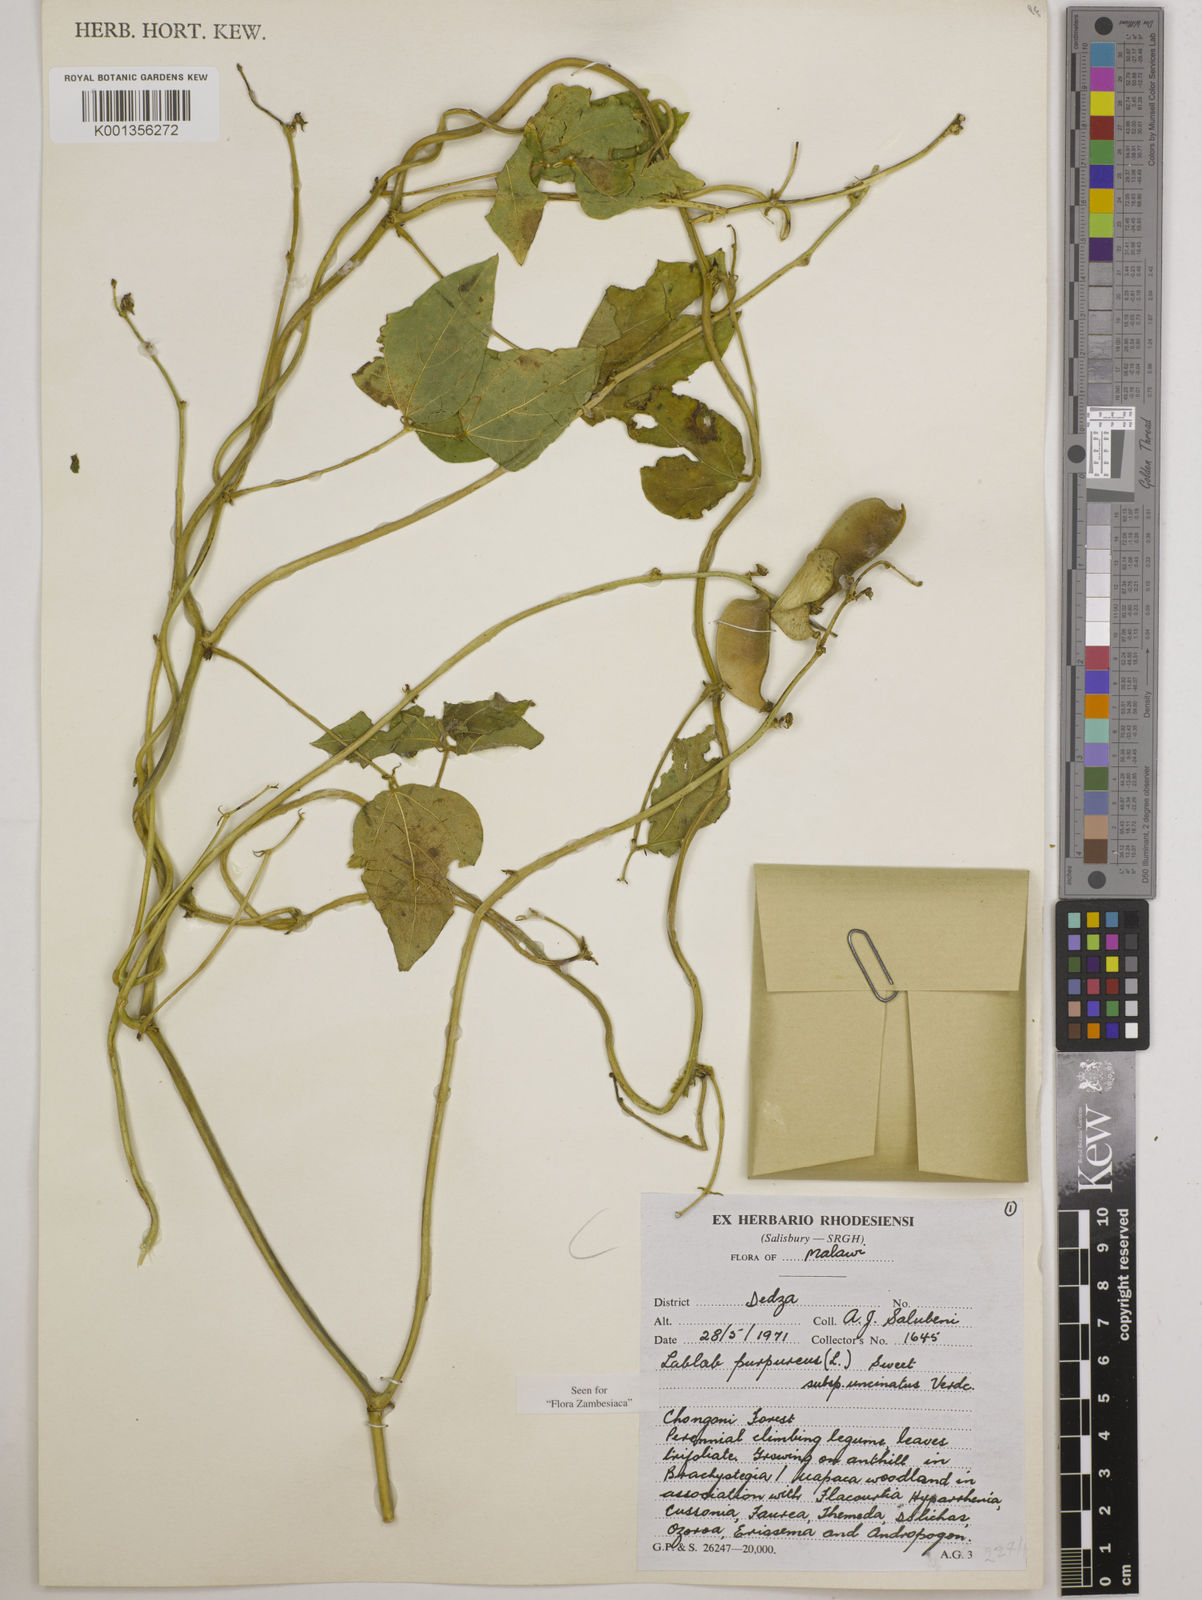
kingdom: Plantae
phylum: Tracheophyta
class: Magnoliopsida
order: Fabales
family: Fabaceae
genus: Lablab
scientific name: Lablab purpureus
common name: Lablab-bean
